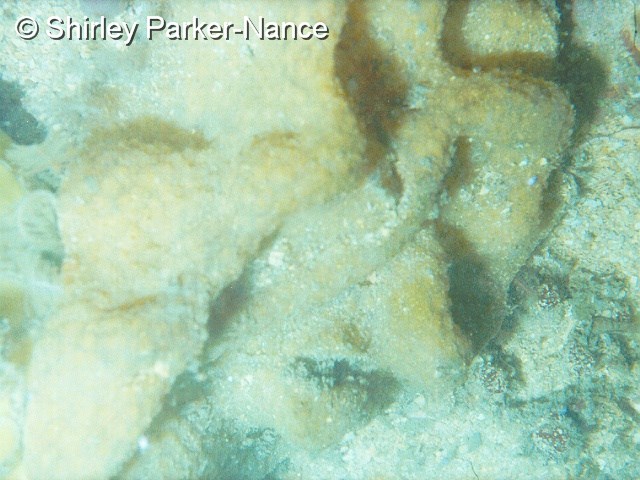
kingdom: Animalia
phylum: Chordata
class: Ascidiacea
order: Aplousobranchia
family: Diazonidae
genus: Tylobranchion
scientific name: Tylobranchion
